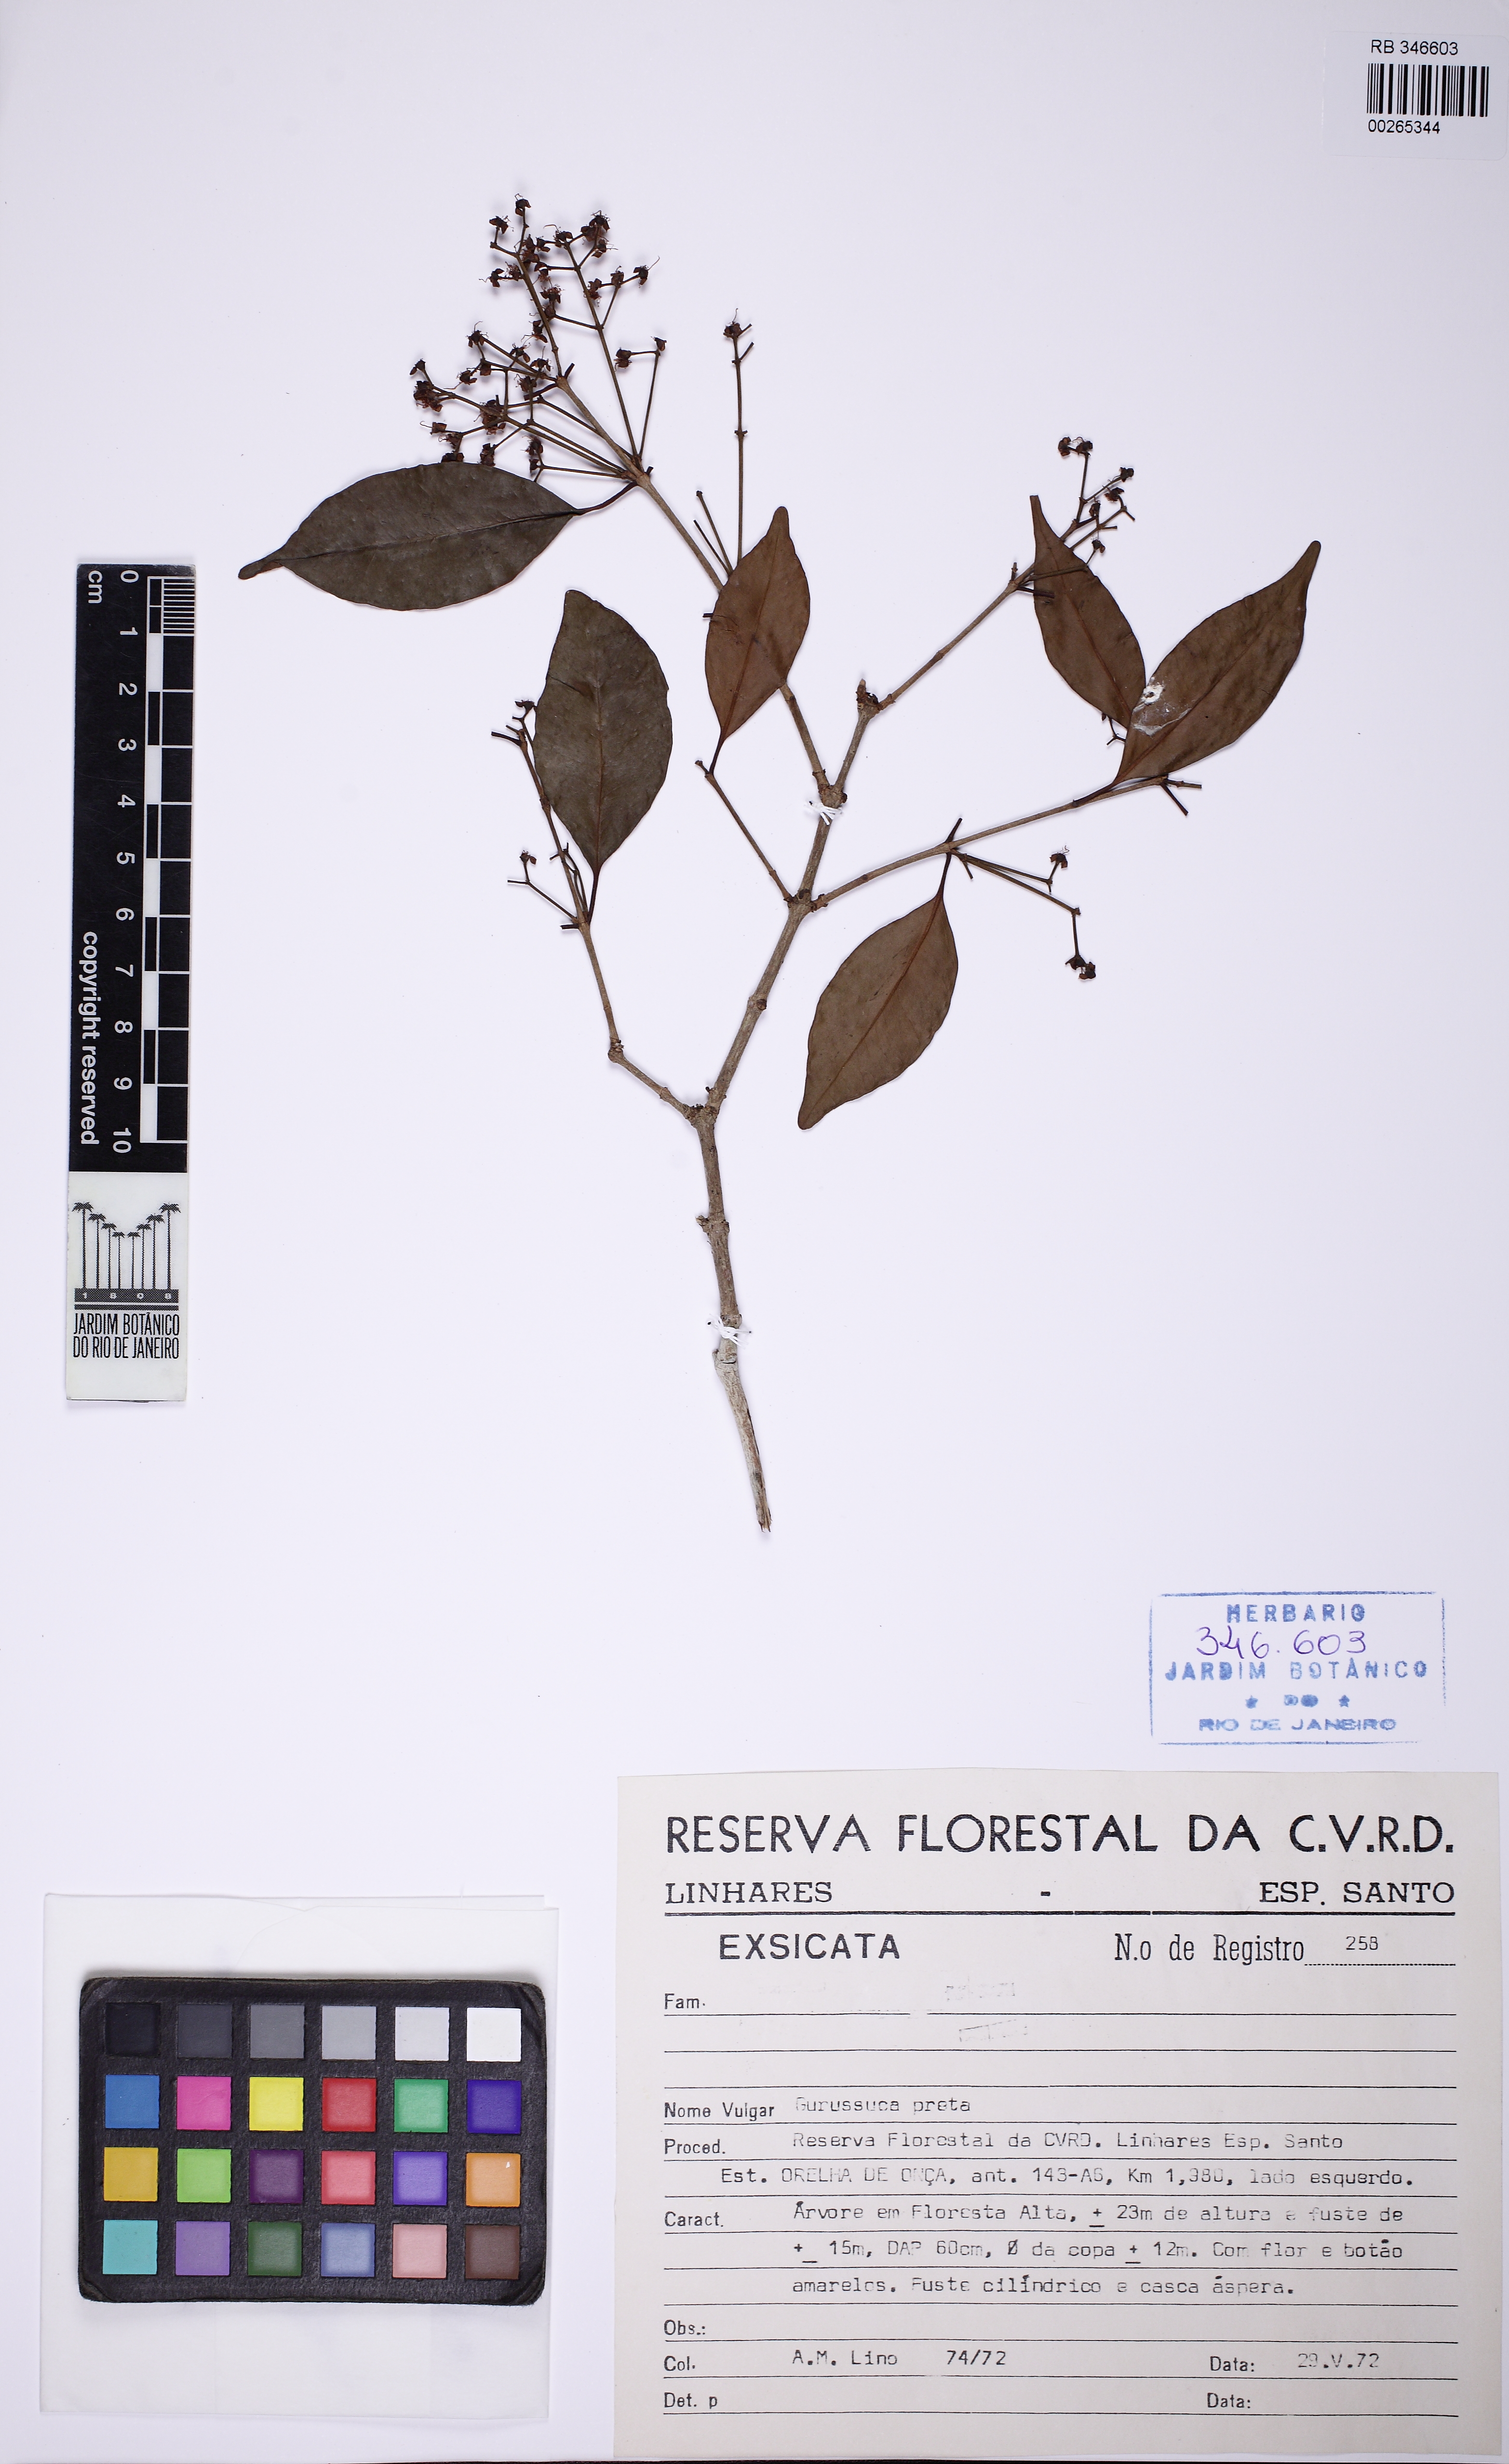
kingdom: Plantae
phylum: Tracheophyta
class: Magnoliopsida
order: Myrtales
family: Myrtaceae
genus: Blepharocalyx
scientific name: Blepharocalyx eggersii
